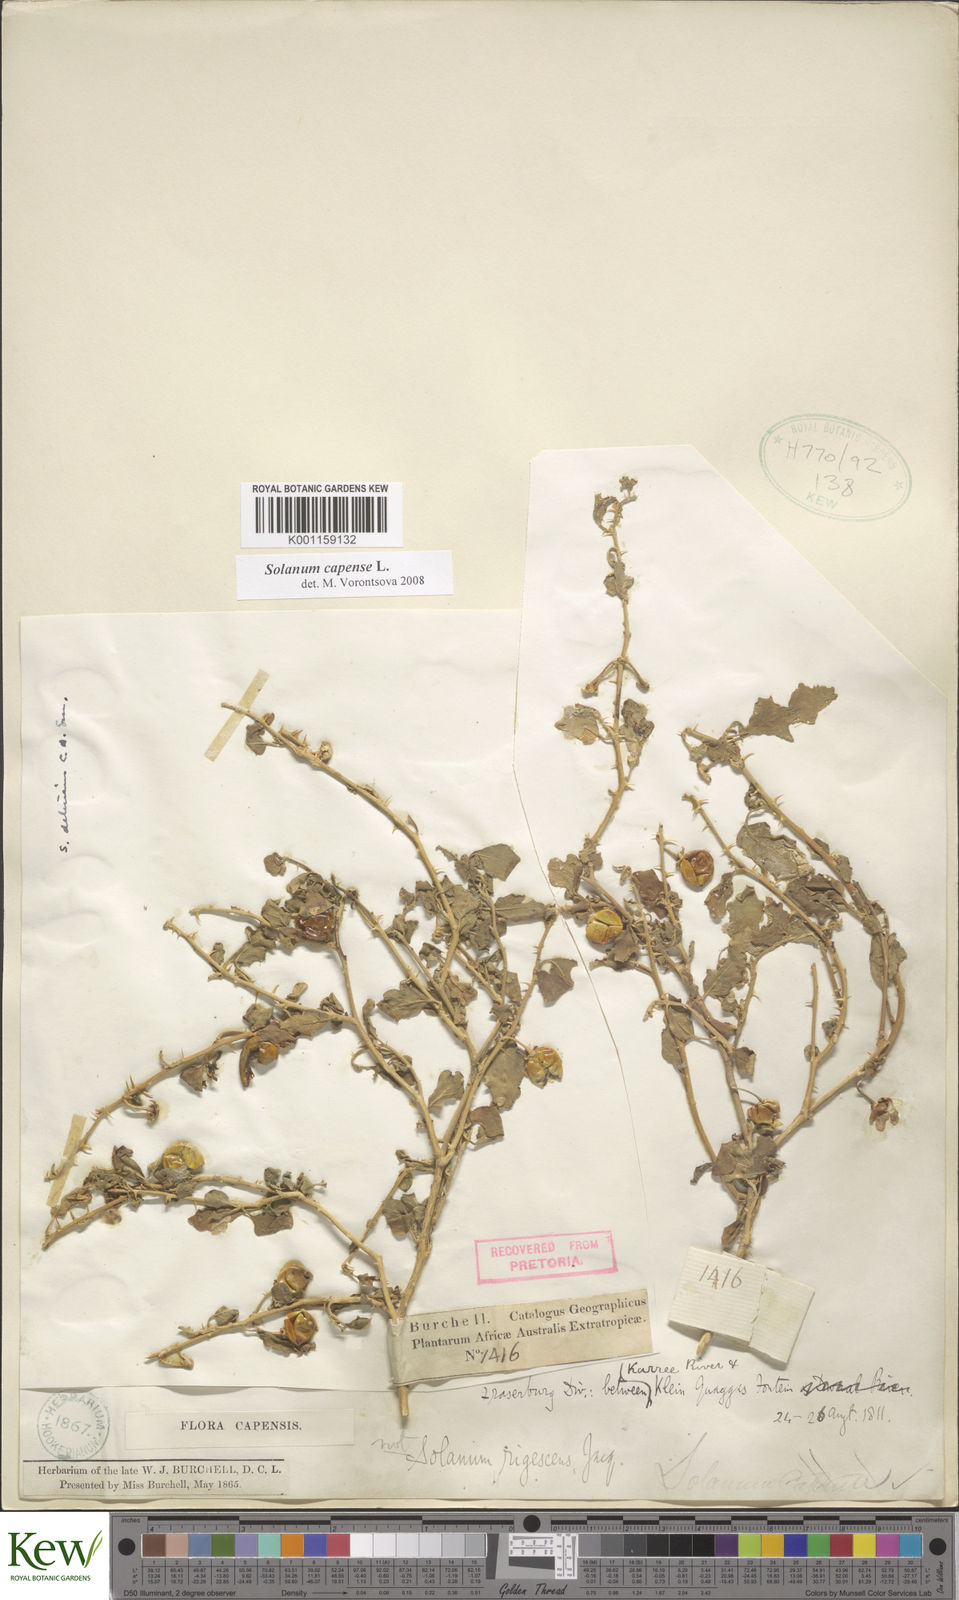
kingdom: Plantae
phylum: Tracheophyta
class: Magnoliopsida
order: Solanales
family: Solanaceae
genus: Solanum
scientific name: Solanum capense
